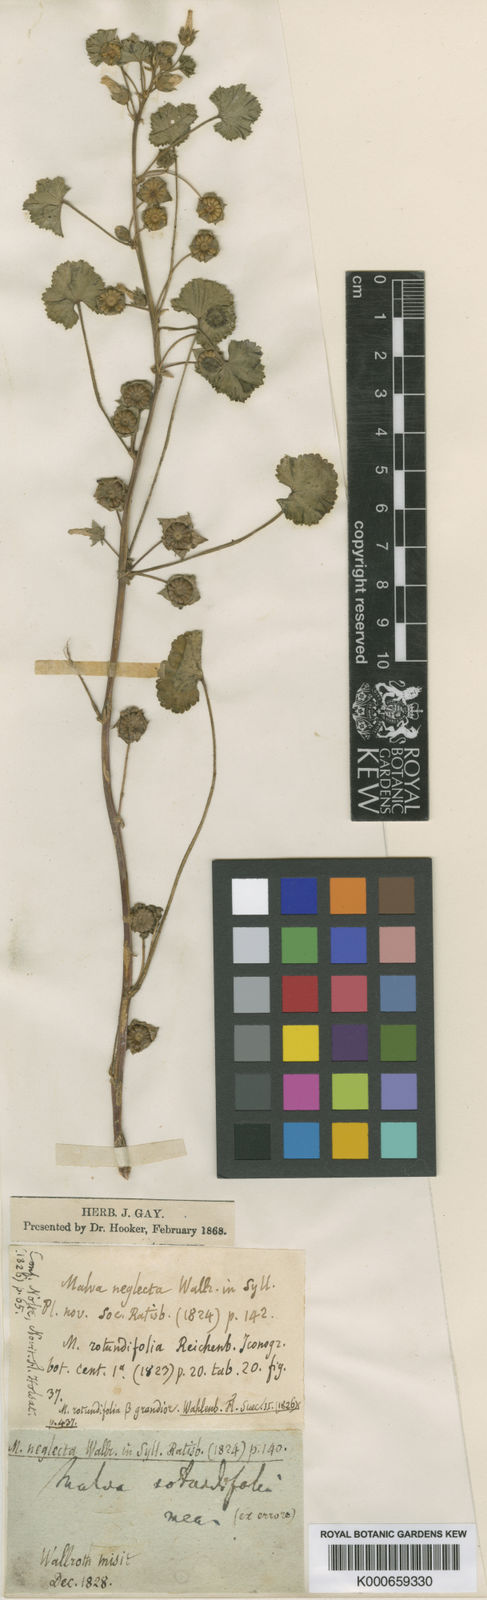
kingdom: Plantae
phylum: Tracheophyta
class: Magnoliopsida
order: Malvales
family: Malvaceae
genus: Malva
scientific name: Malva neglecta
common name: Common mallow
